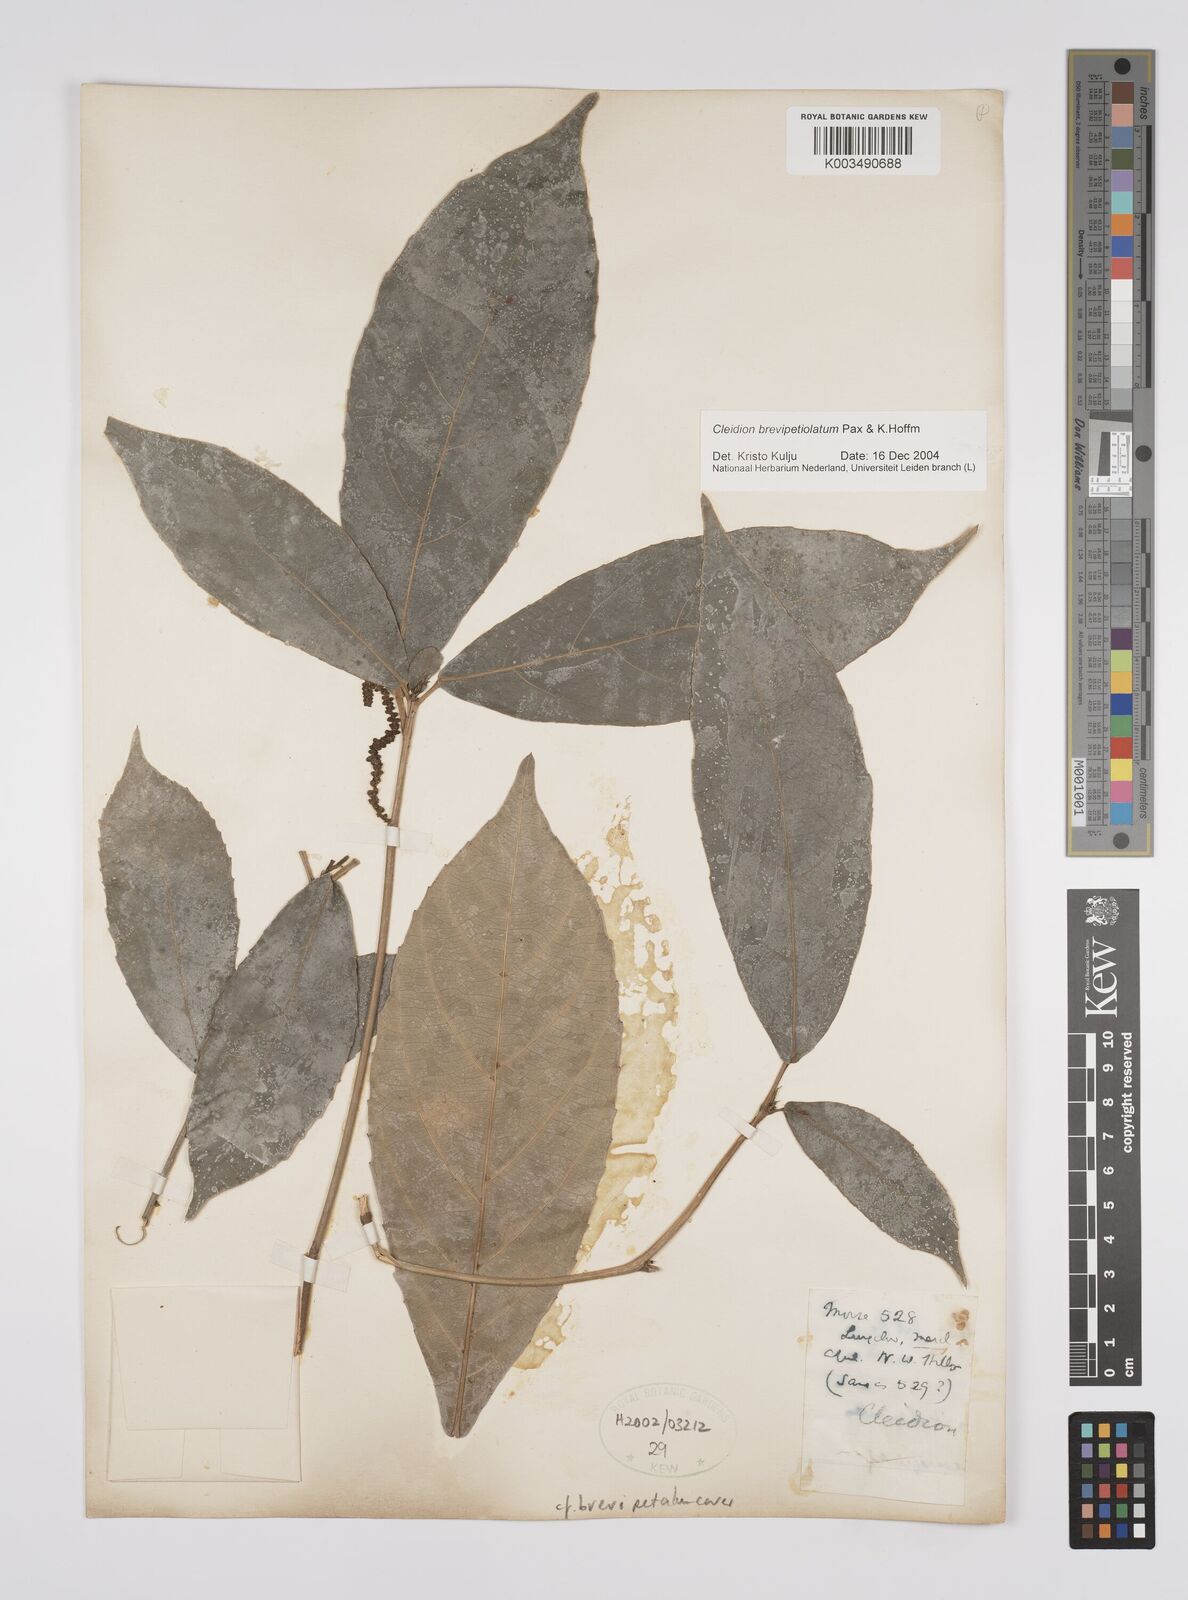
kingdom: Plantae
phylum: Tracheophyta
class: Magnoliopsida
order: Malpighiales
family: Euphorbiaceae
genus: Cleidion
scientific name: Cleidion brevipetiolatum
